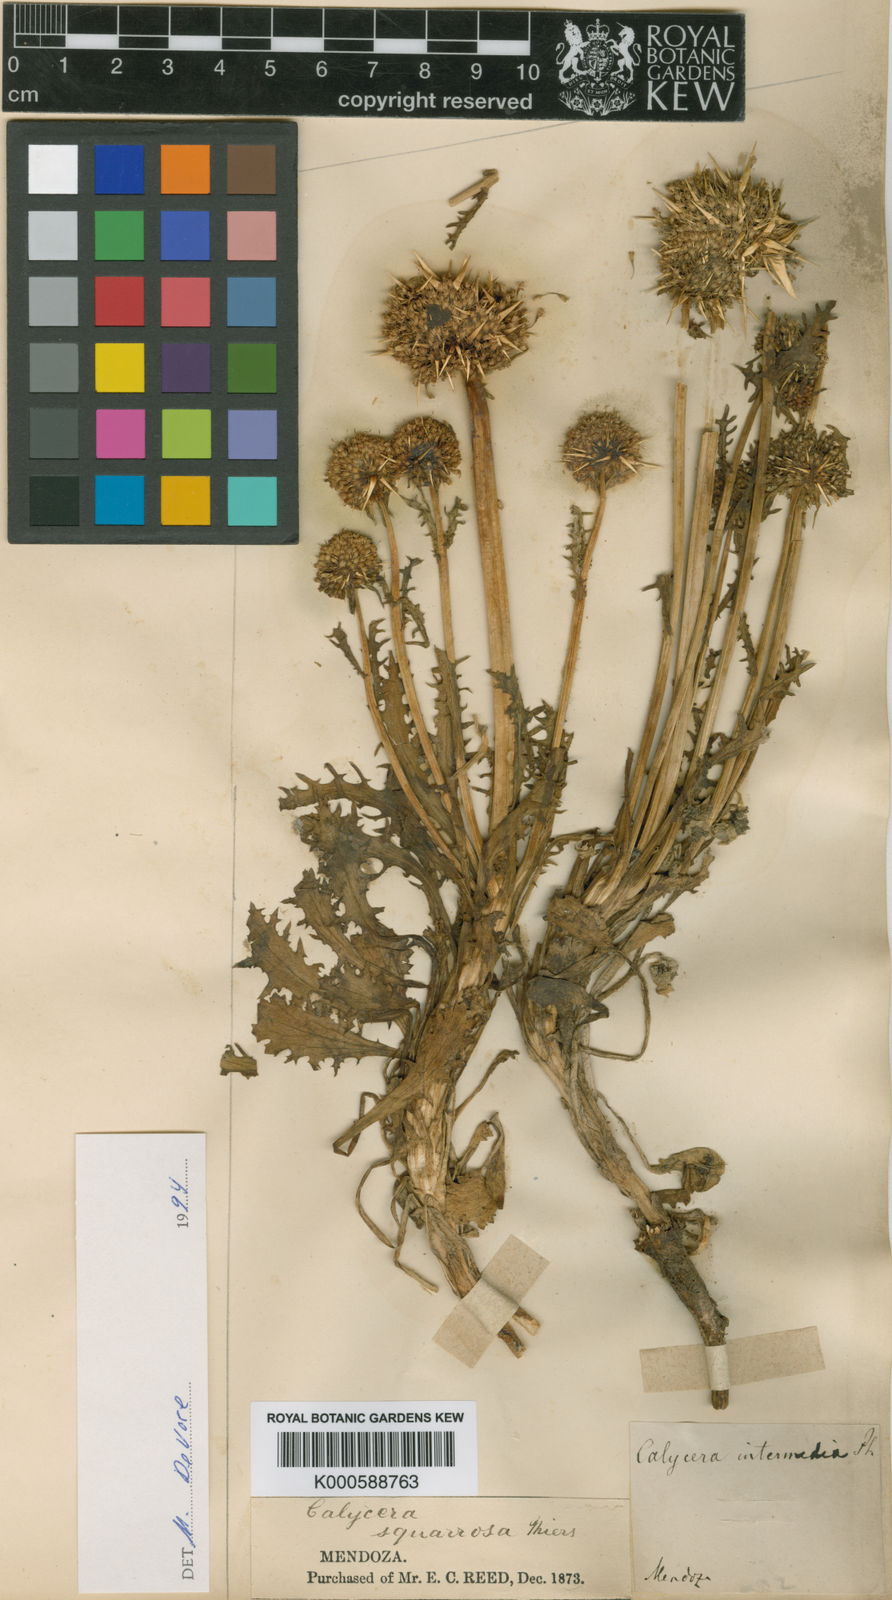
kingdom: Plantae
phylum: Tracheophyta
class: Magnoliopsida
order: Asterales
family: Calyceraceae
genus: Calycera
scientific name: Calycera herbacea
